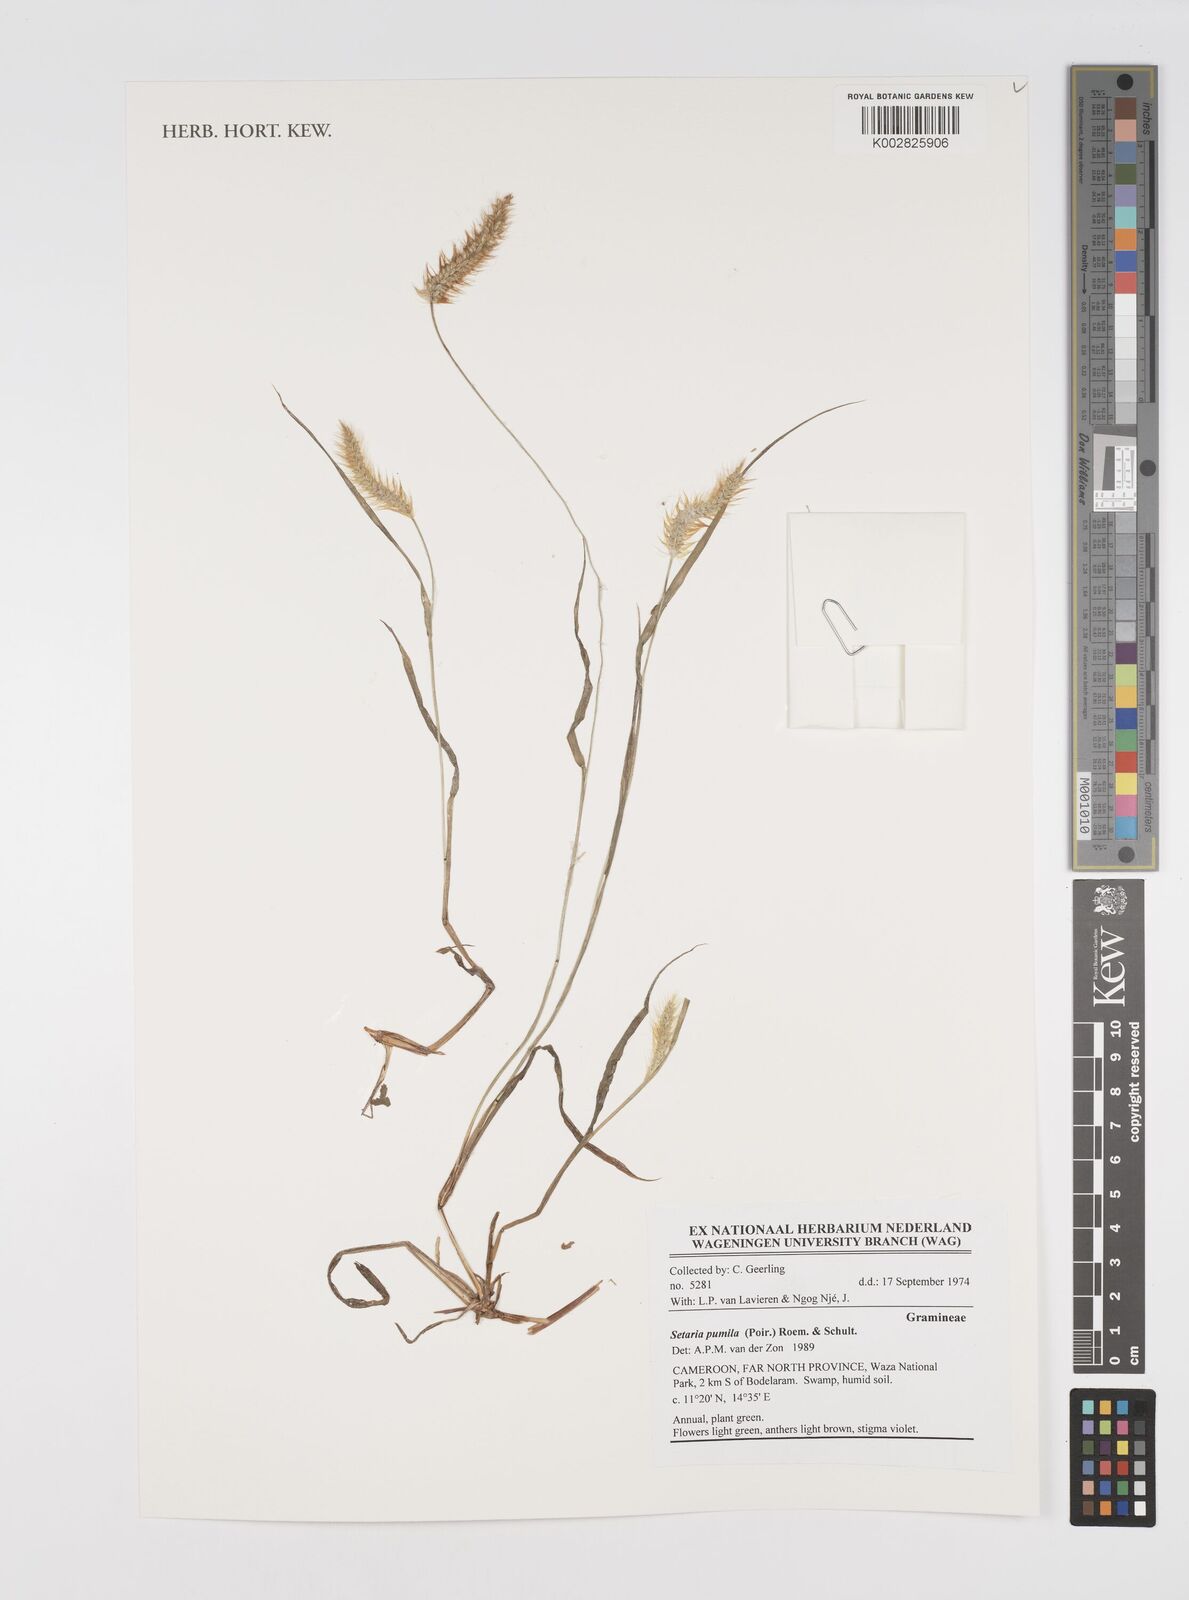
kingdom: Plantae
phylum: Tracheophyta
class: Liliopsida
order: Poales
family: Poaceae
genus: Setaria
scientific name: Setaria pumila
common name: Yellow bristle-grass
